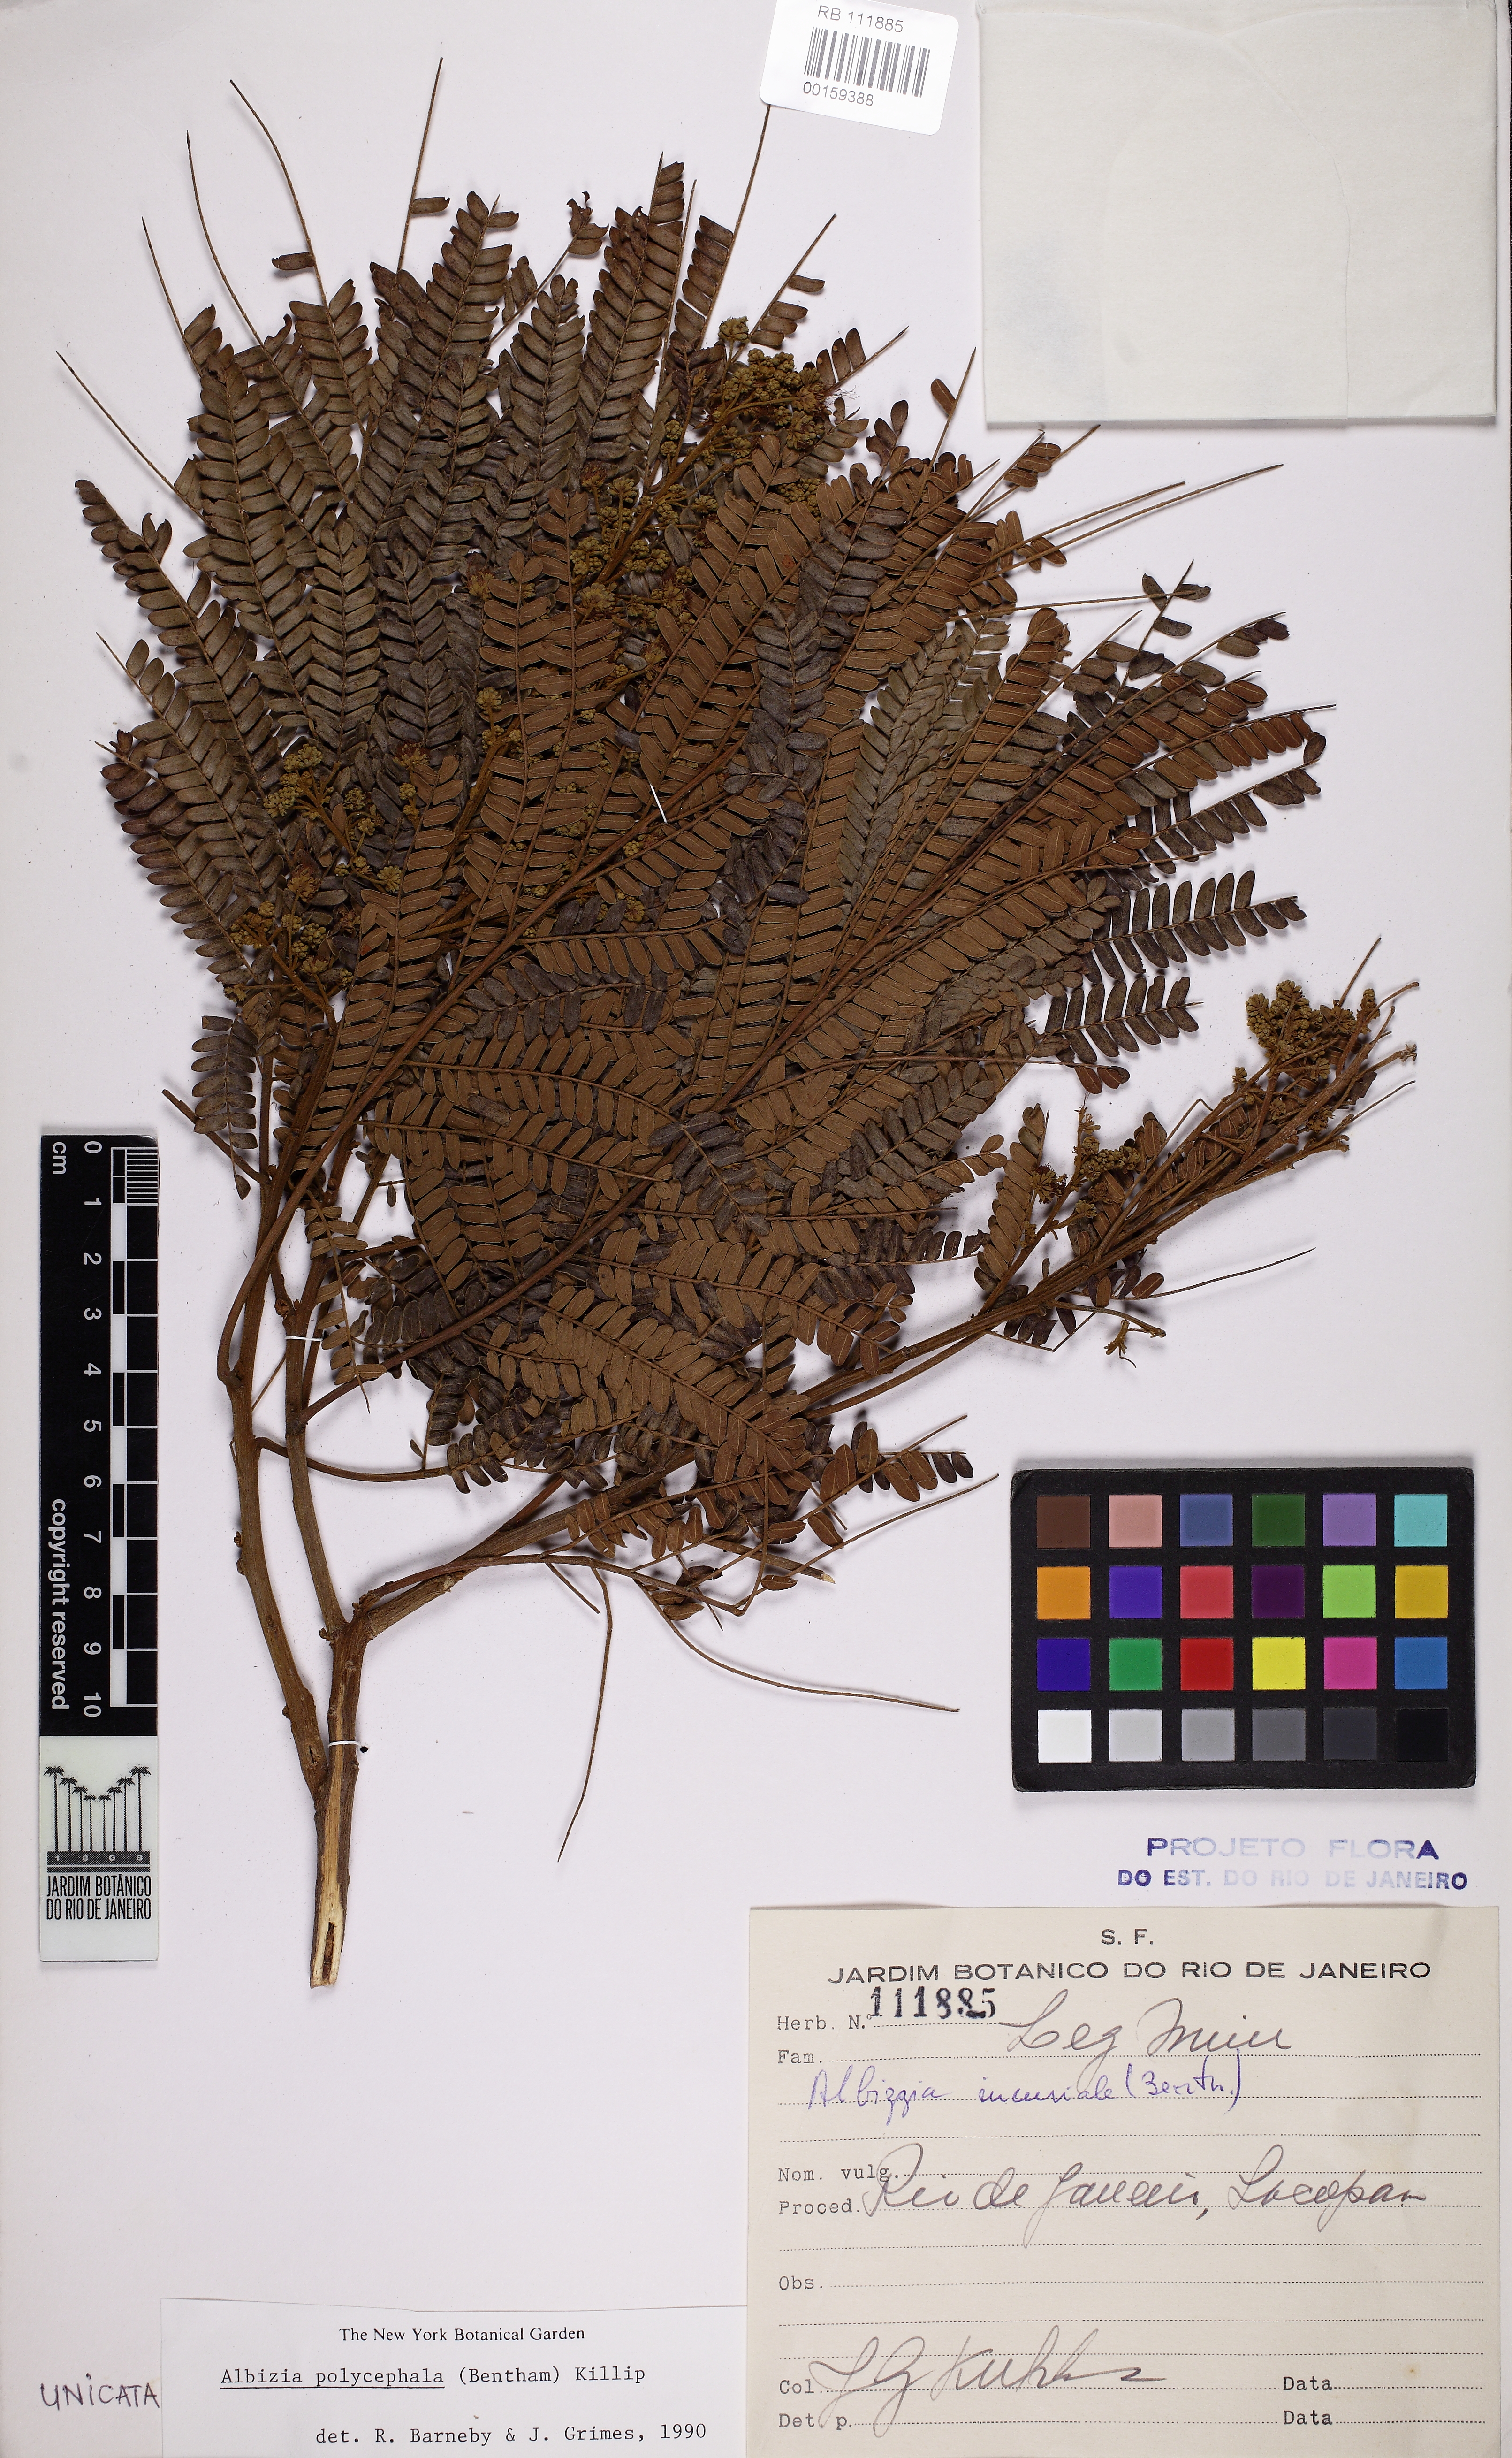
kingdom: Plantae
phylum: Tracheophyta
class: Magnoliopsida
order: Fabales
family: Fabaceae
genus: Albizia
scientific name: Albizia polycephala
